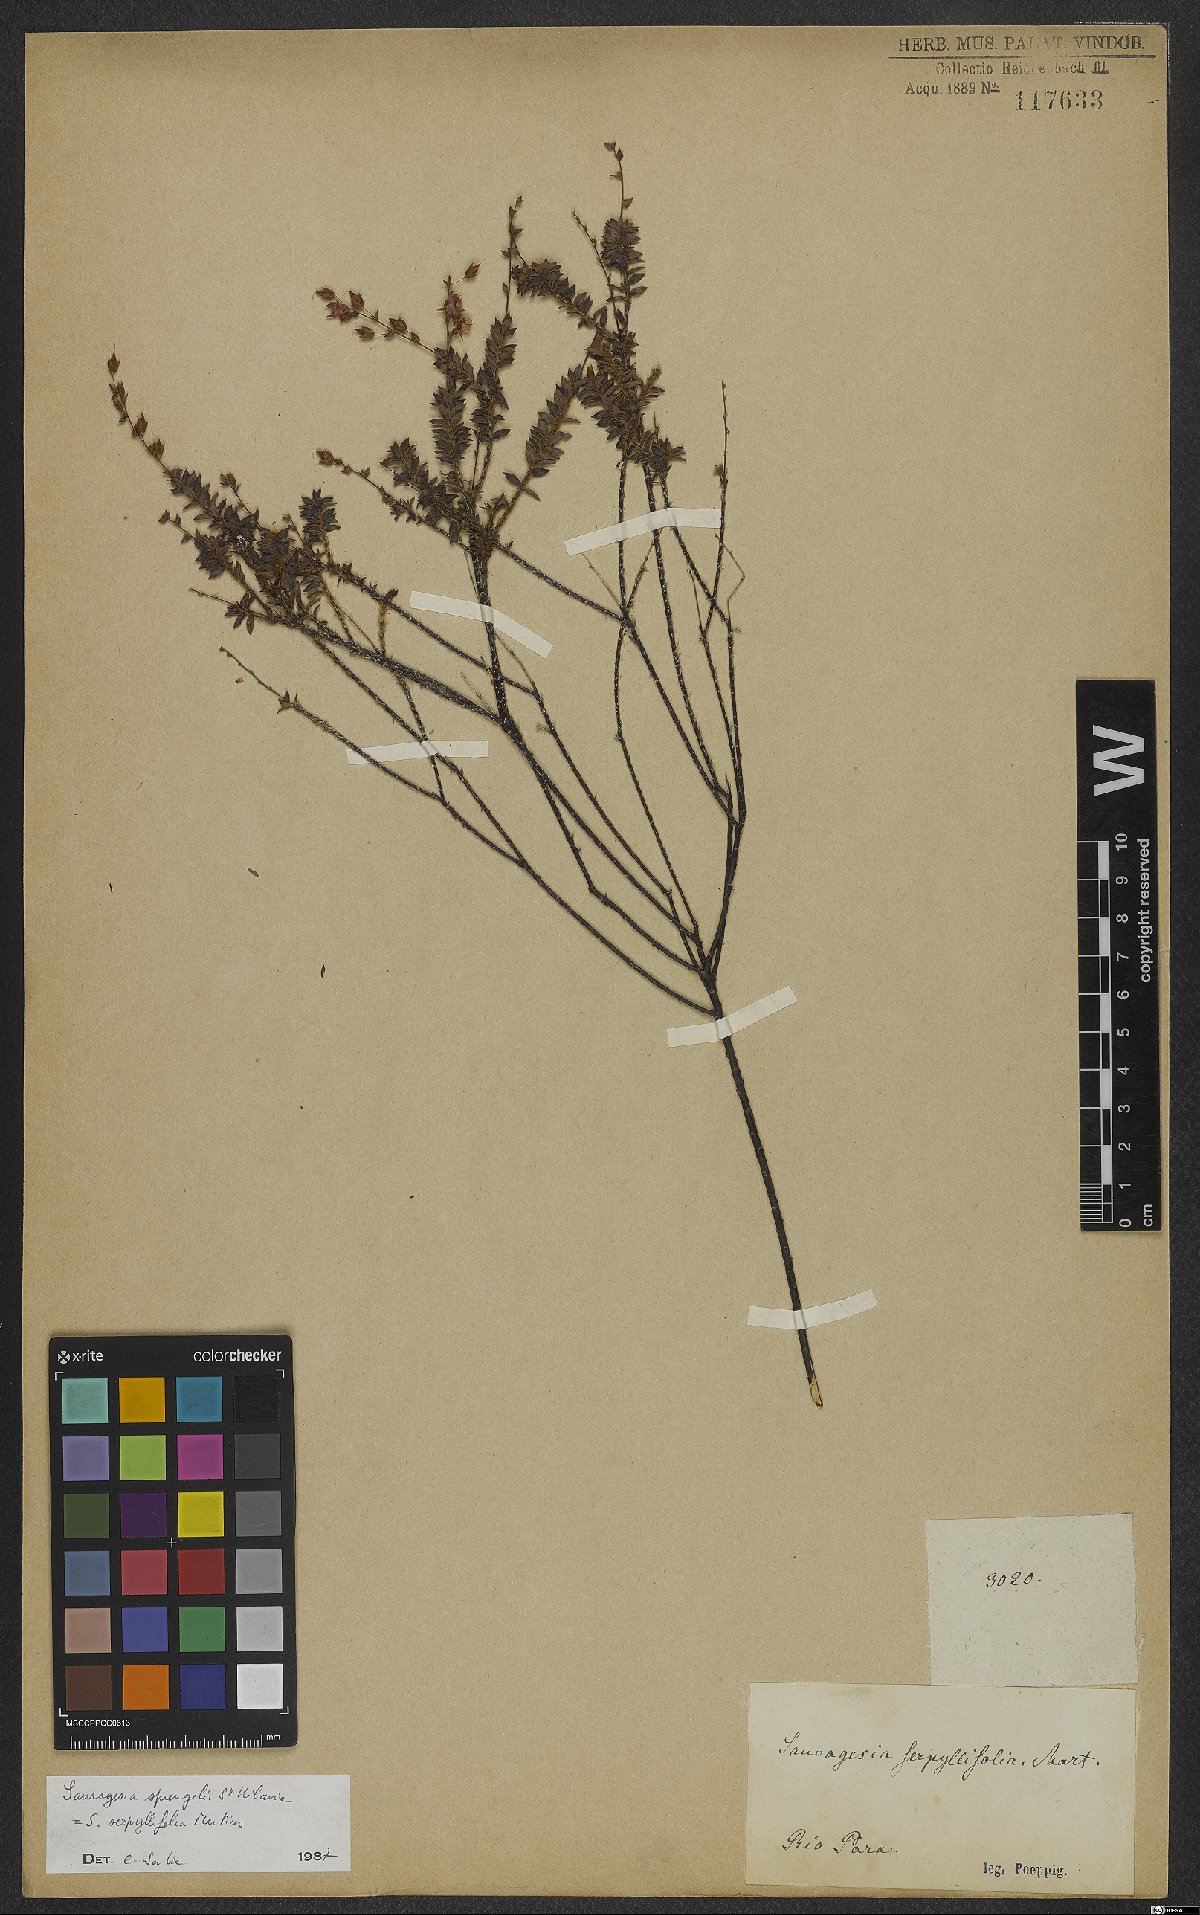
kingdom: Plantae
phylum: Tracheophyta
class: Magnoliopsida
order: Malpighiales
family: Ochnaceae
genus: Sauvagesia
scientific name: Sauvagesia tenella
